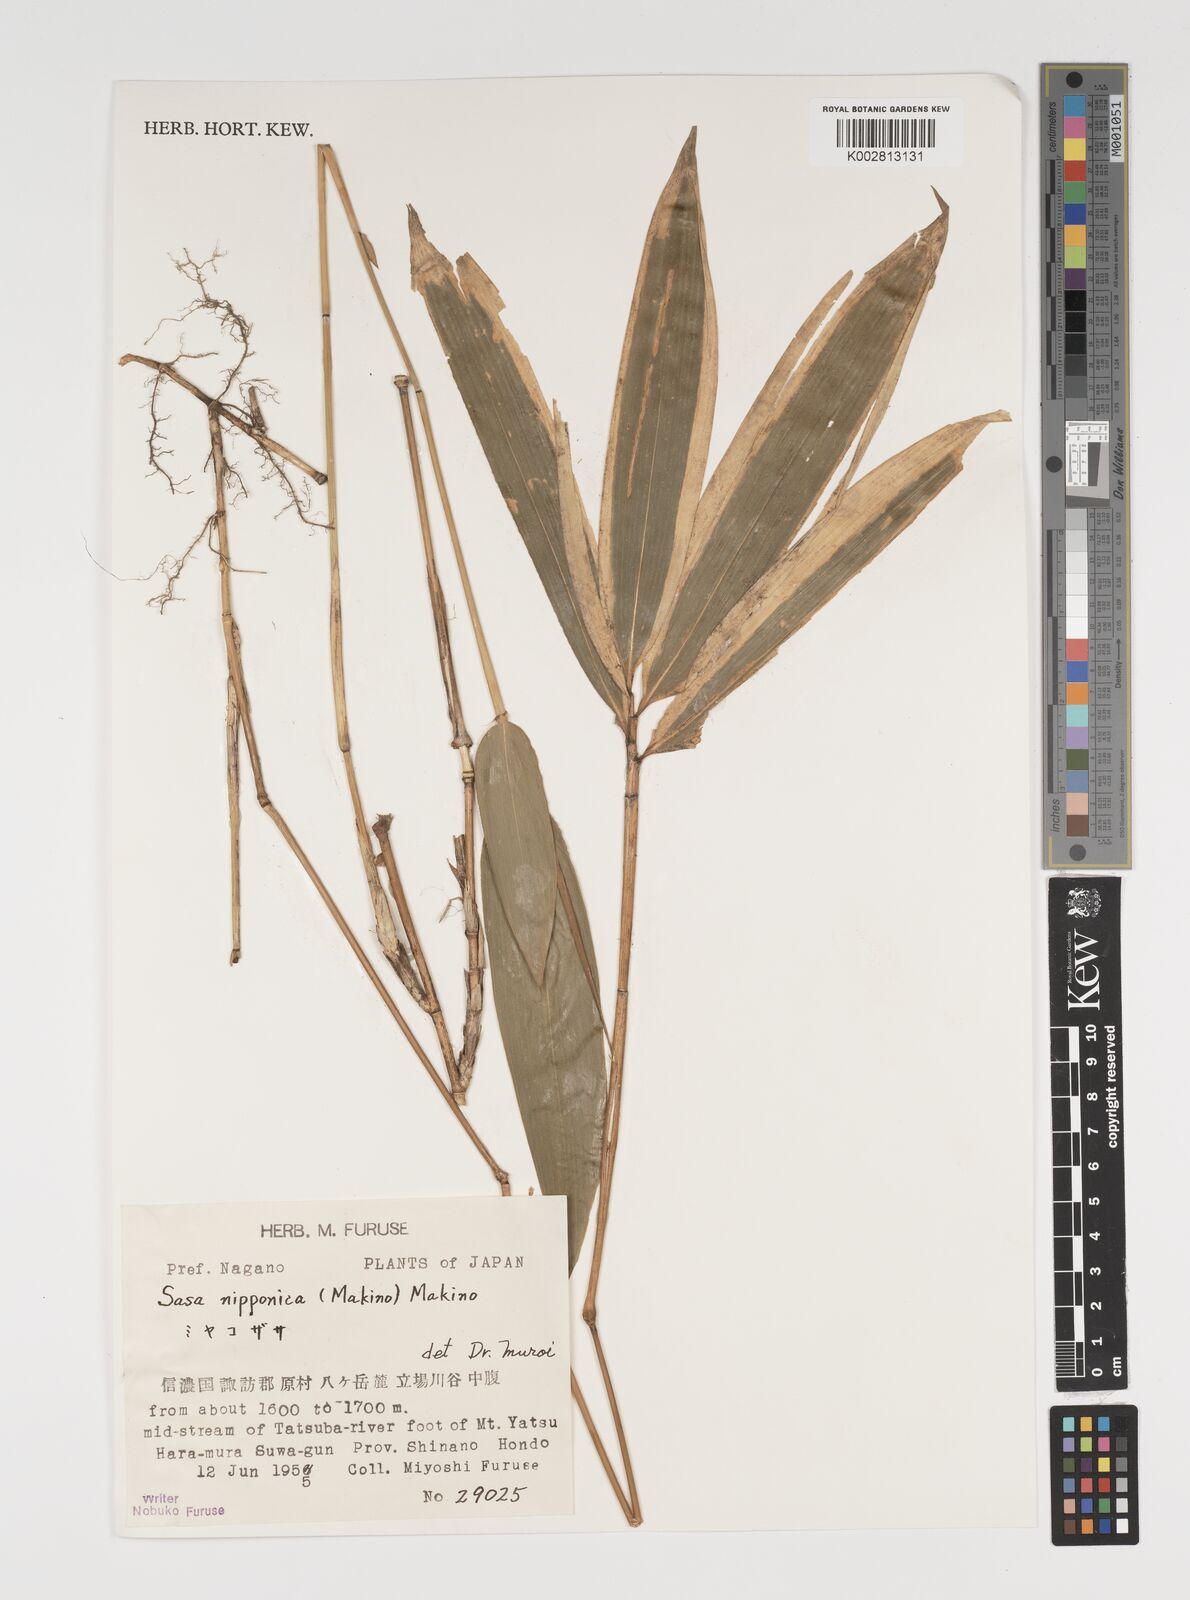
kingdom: Plantae
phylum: Tracheophyta
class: Liliopsida
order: Poales
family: Poaceae
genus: Sasa
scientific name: Sasa nipponica
